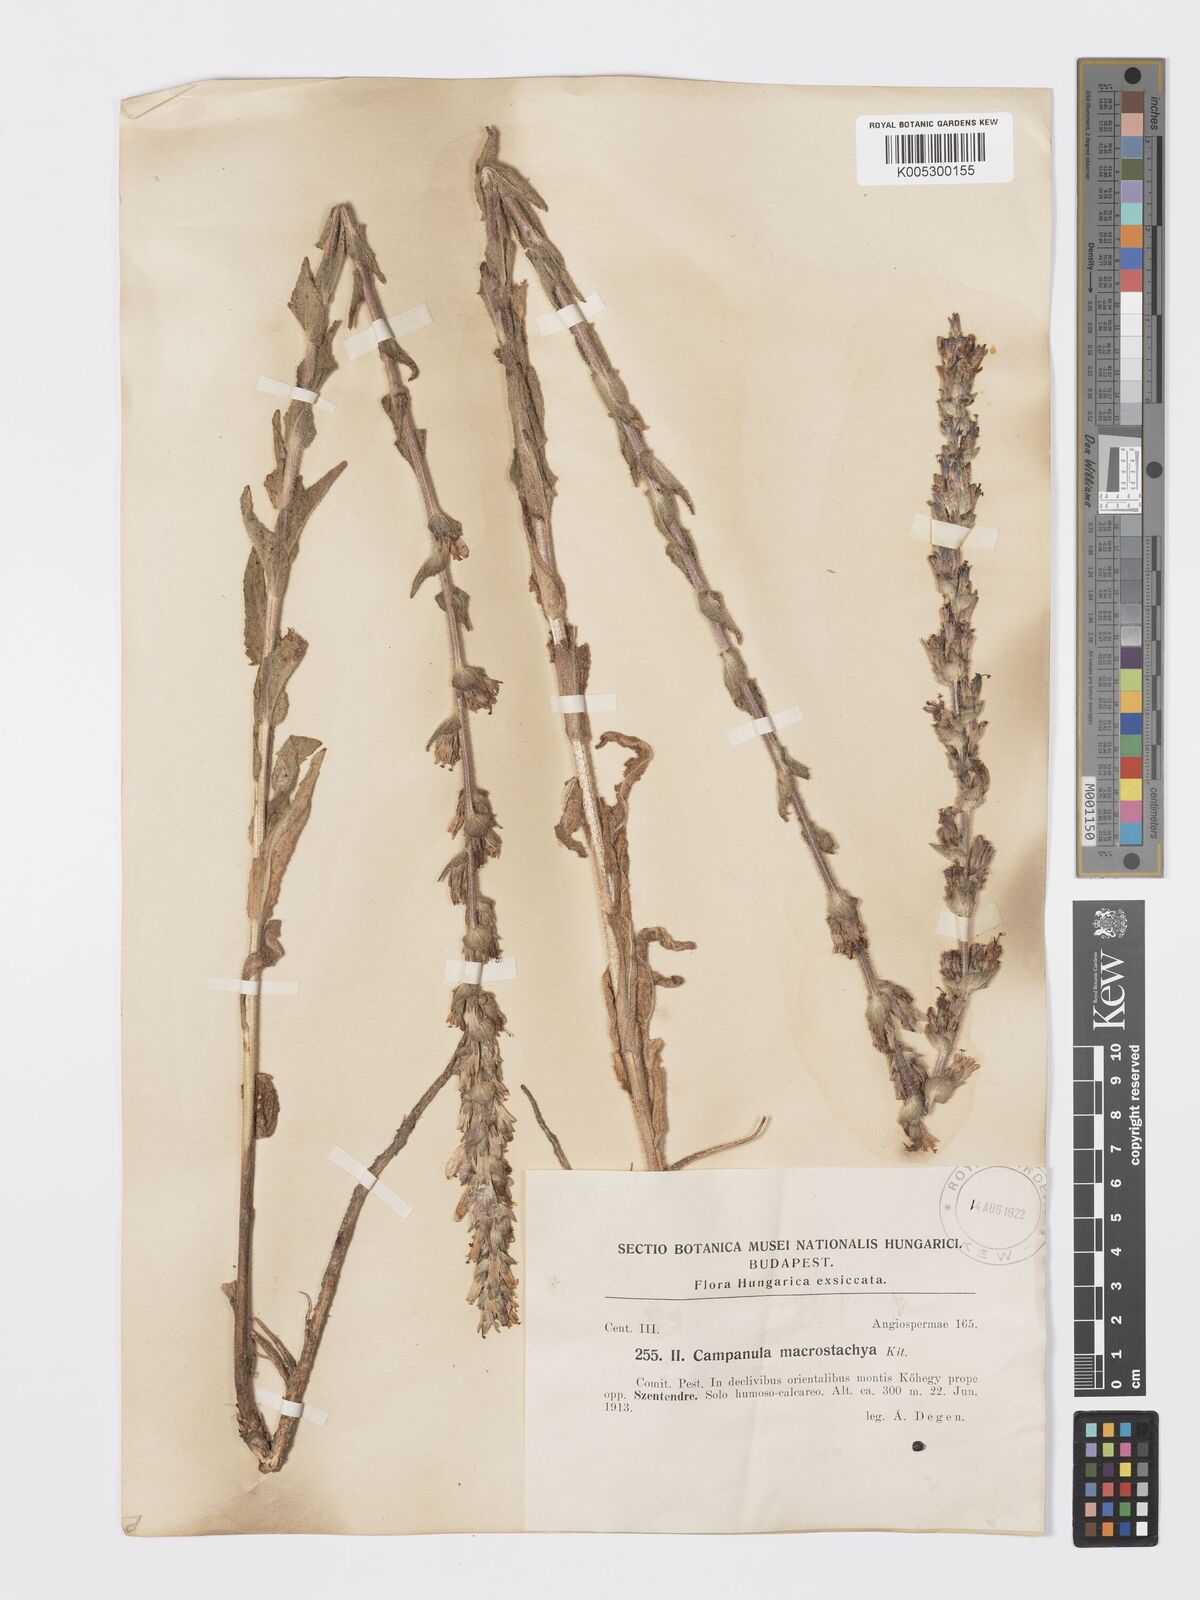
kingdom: Plantae
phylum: Tracheophyta
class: Magnoliopsida
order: Asterales
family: Campanulaceae
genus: Campanula
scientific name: Campanula macrostachya
